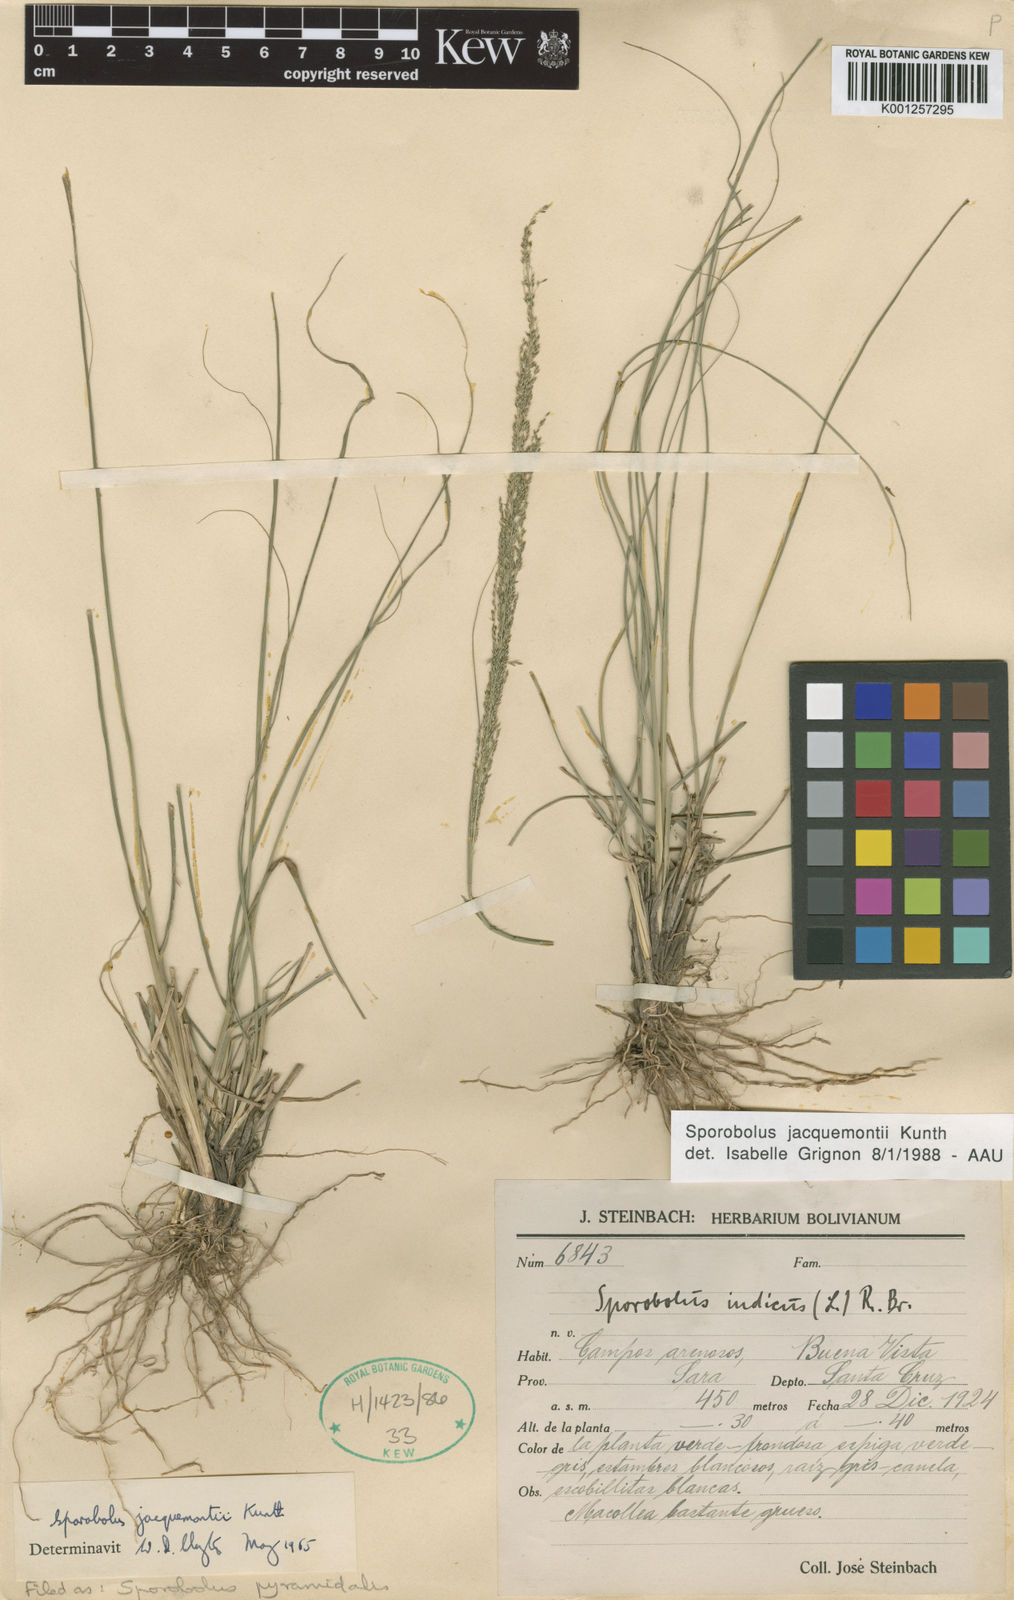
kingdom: Plantae
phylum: Tracheophyta
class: Liliopsida
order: Poales
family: Poaceae
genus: Sporobolus
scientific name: Sporobolus pyramidalis
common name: West indian dropseed
